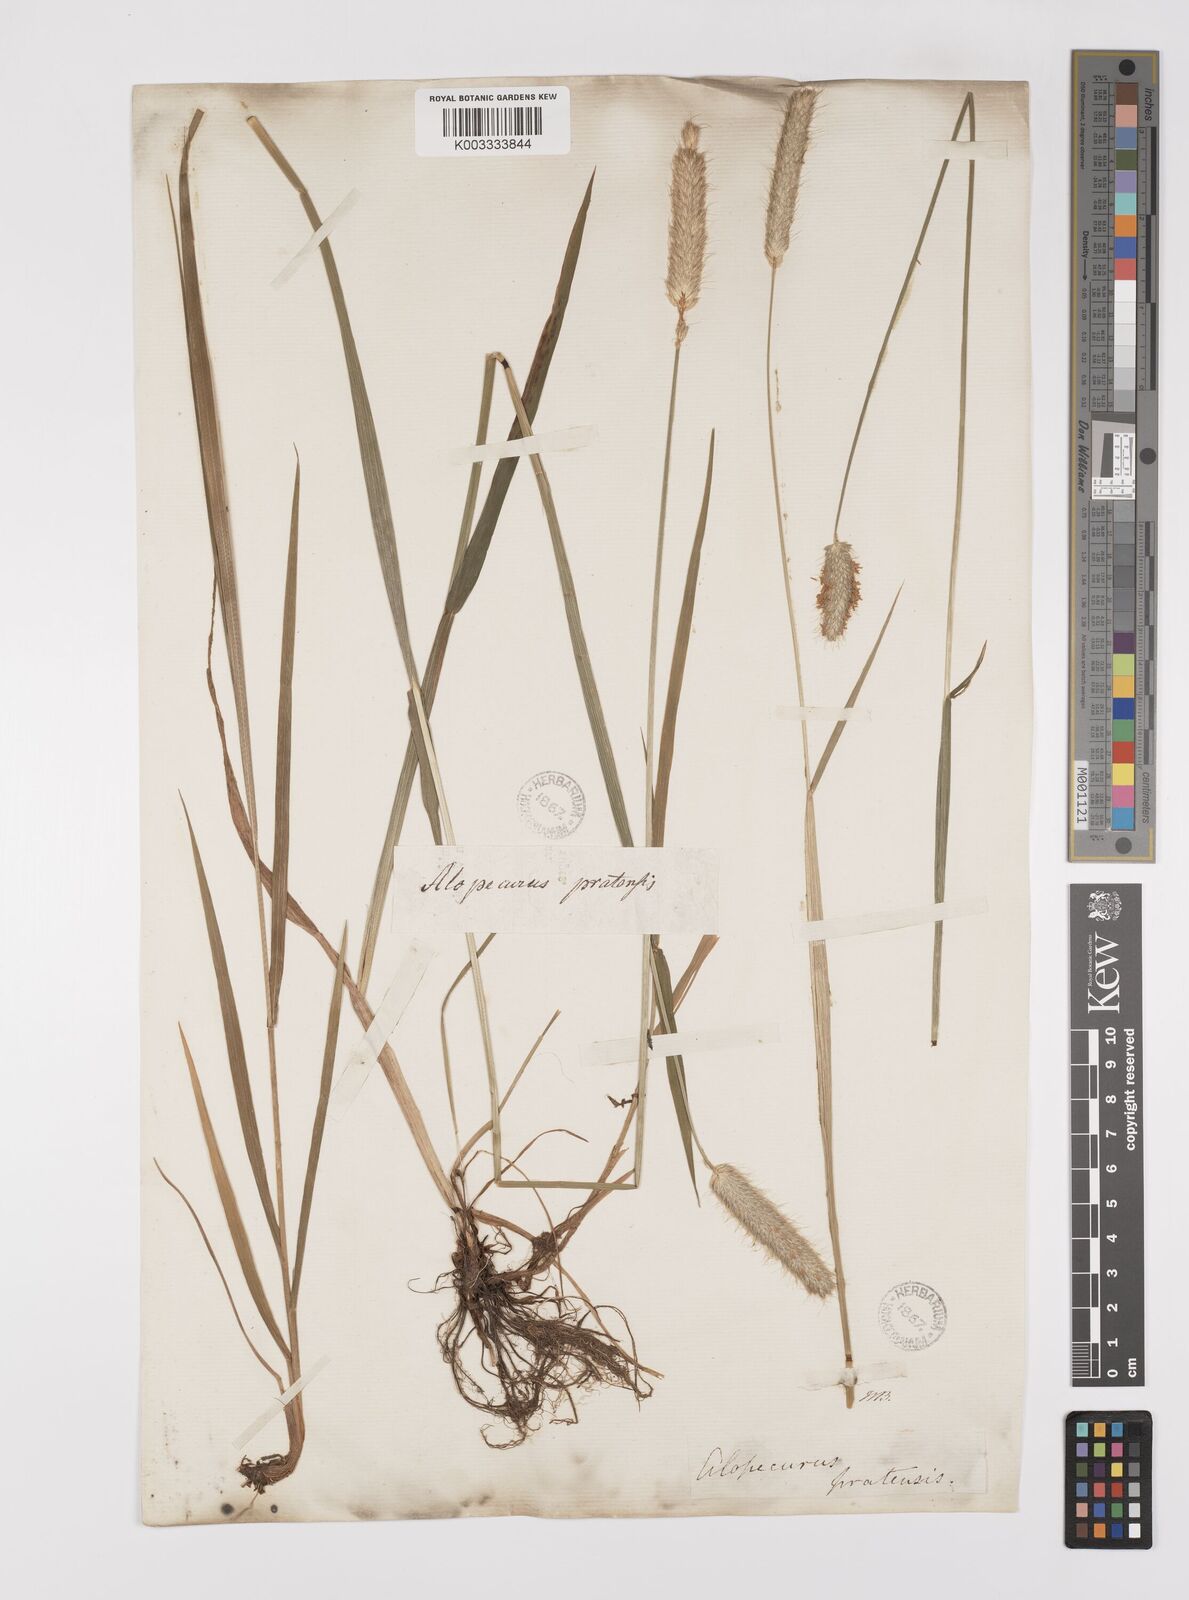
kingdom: Plantae
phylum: Tracheophyta
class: Liliopsida
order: Poales
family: Poaceae
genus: Alopecurus
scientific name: Alopecurus pratensis
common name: Meadow foxtail
